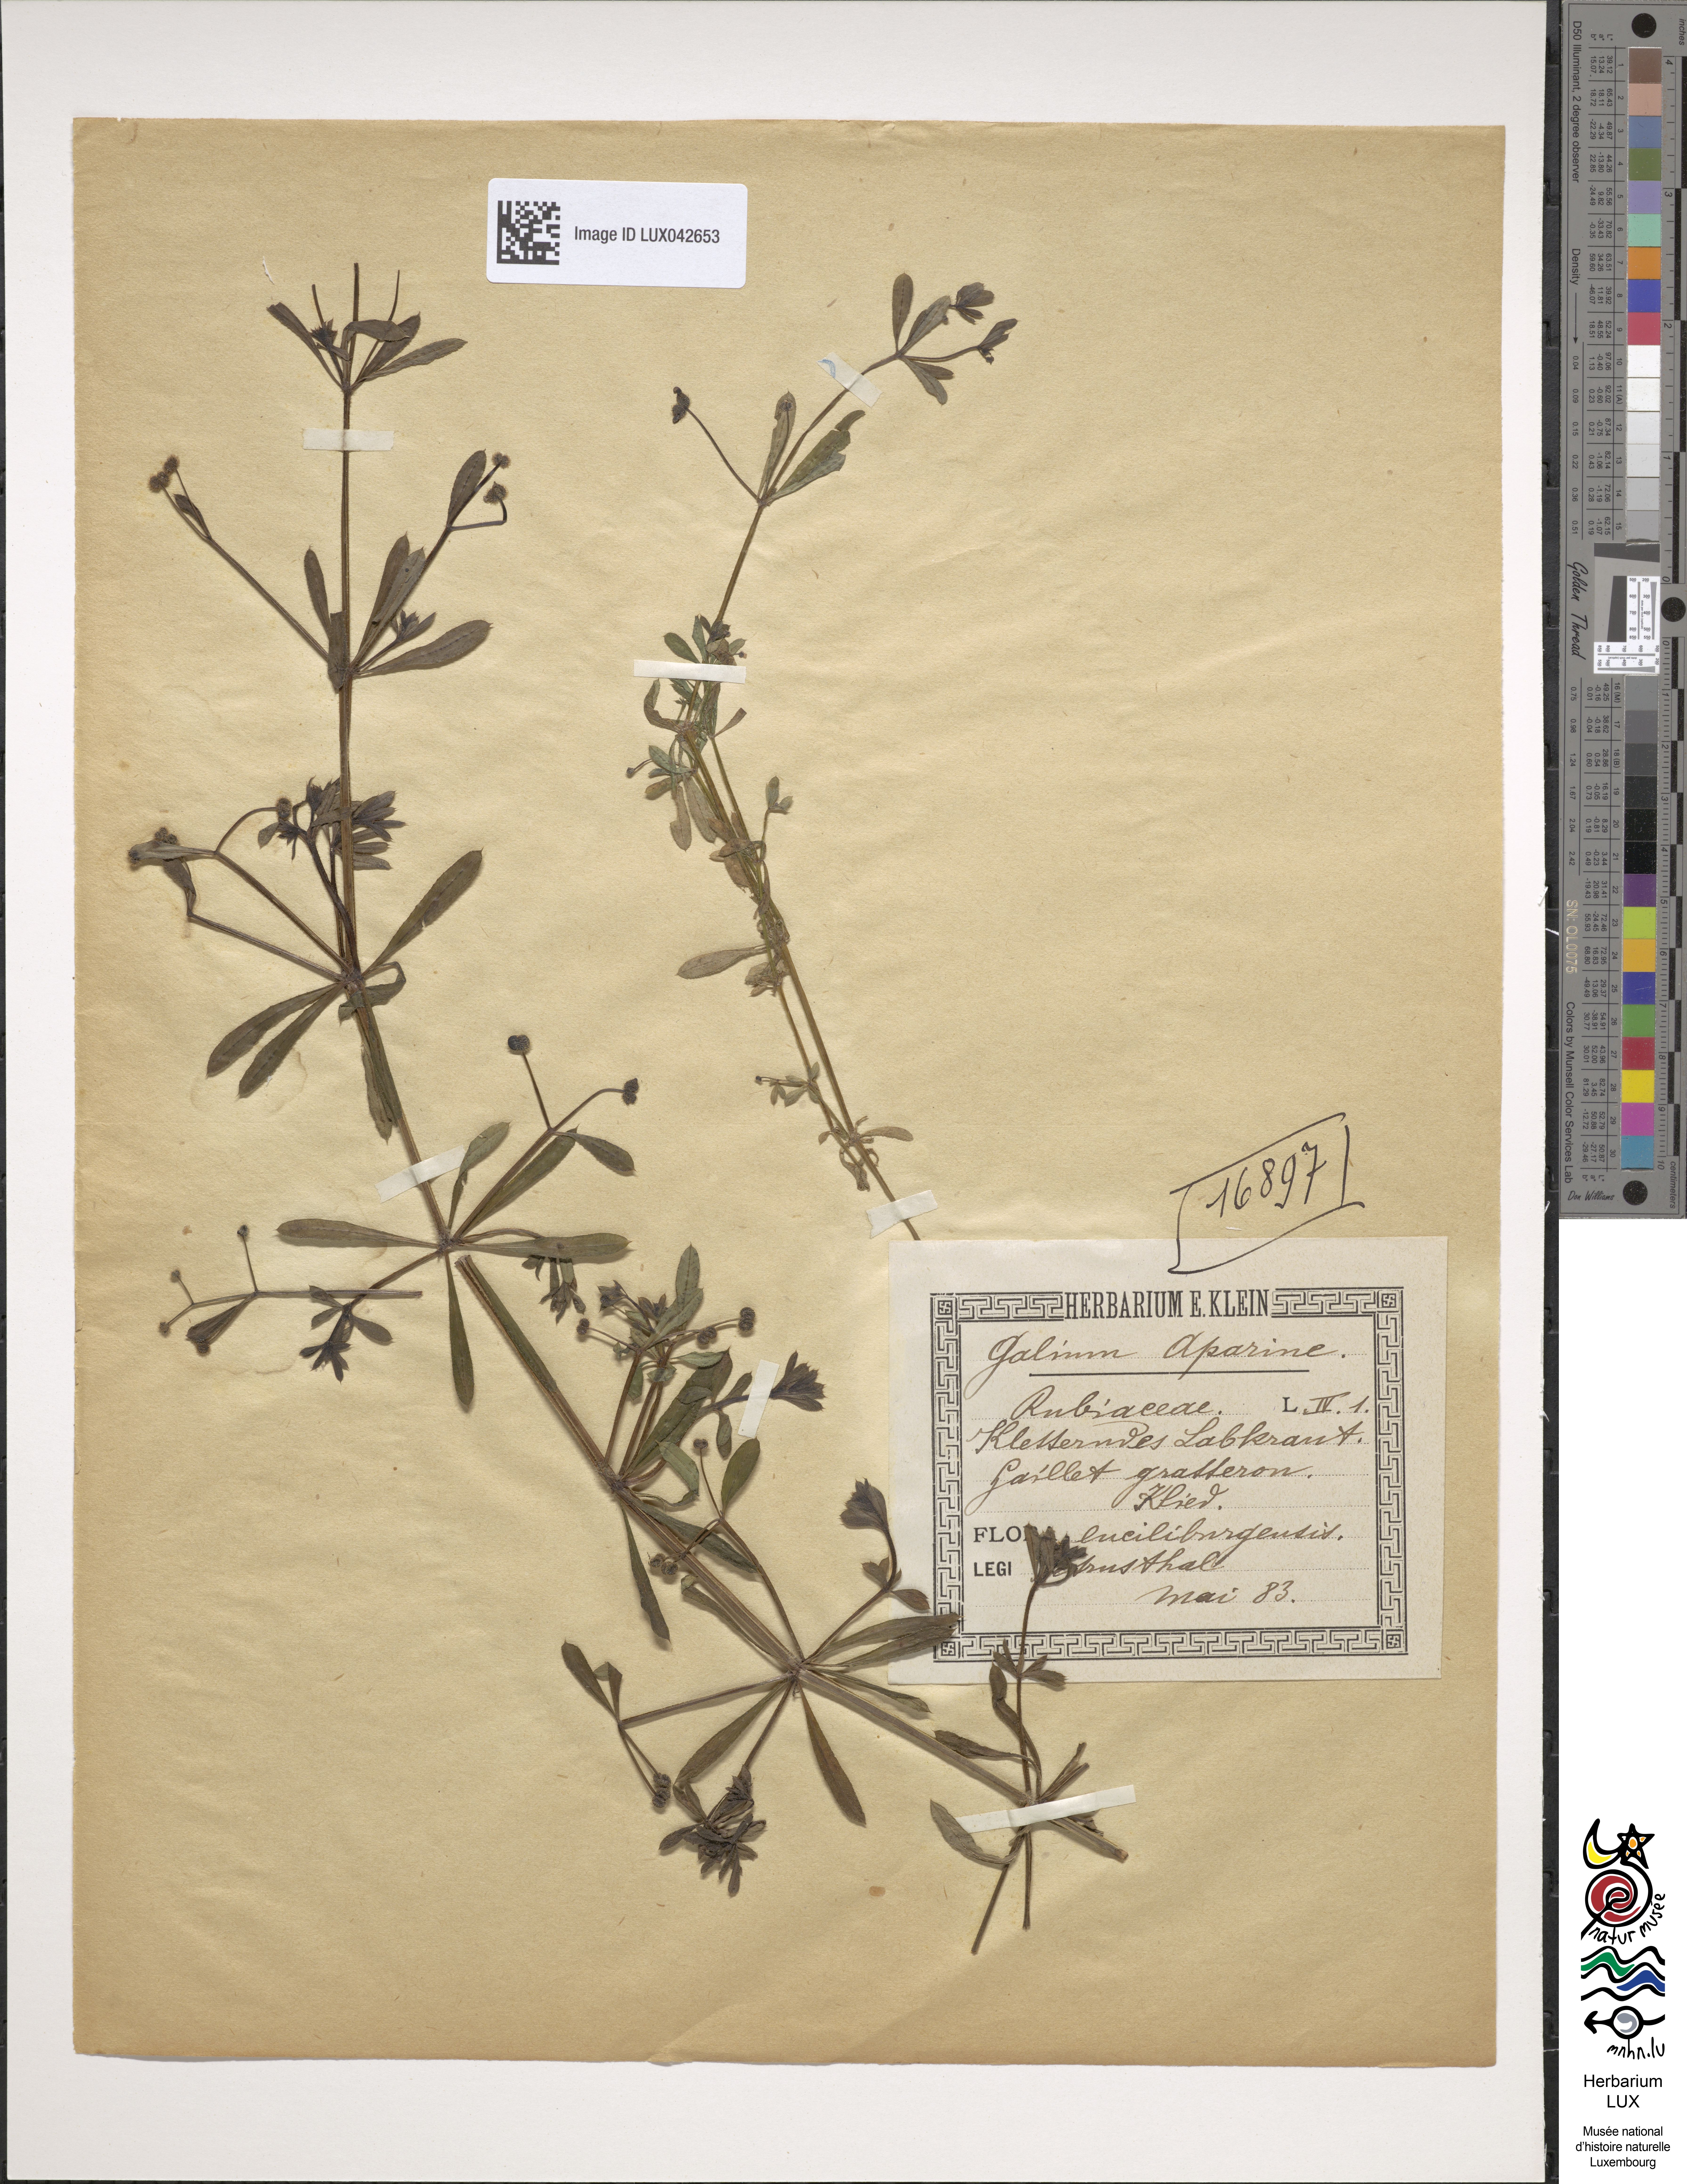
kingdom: Plantae
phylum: Tracheophyta
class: Magnoliopsida
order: Gentianales
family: Rubiaceae
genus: Galium
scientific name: Galium aparine
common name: Cleavers
